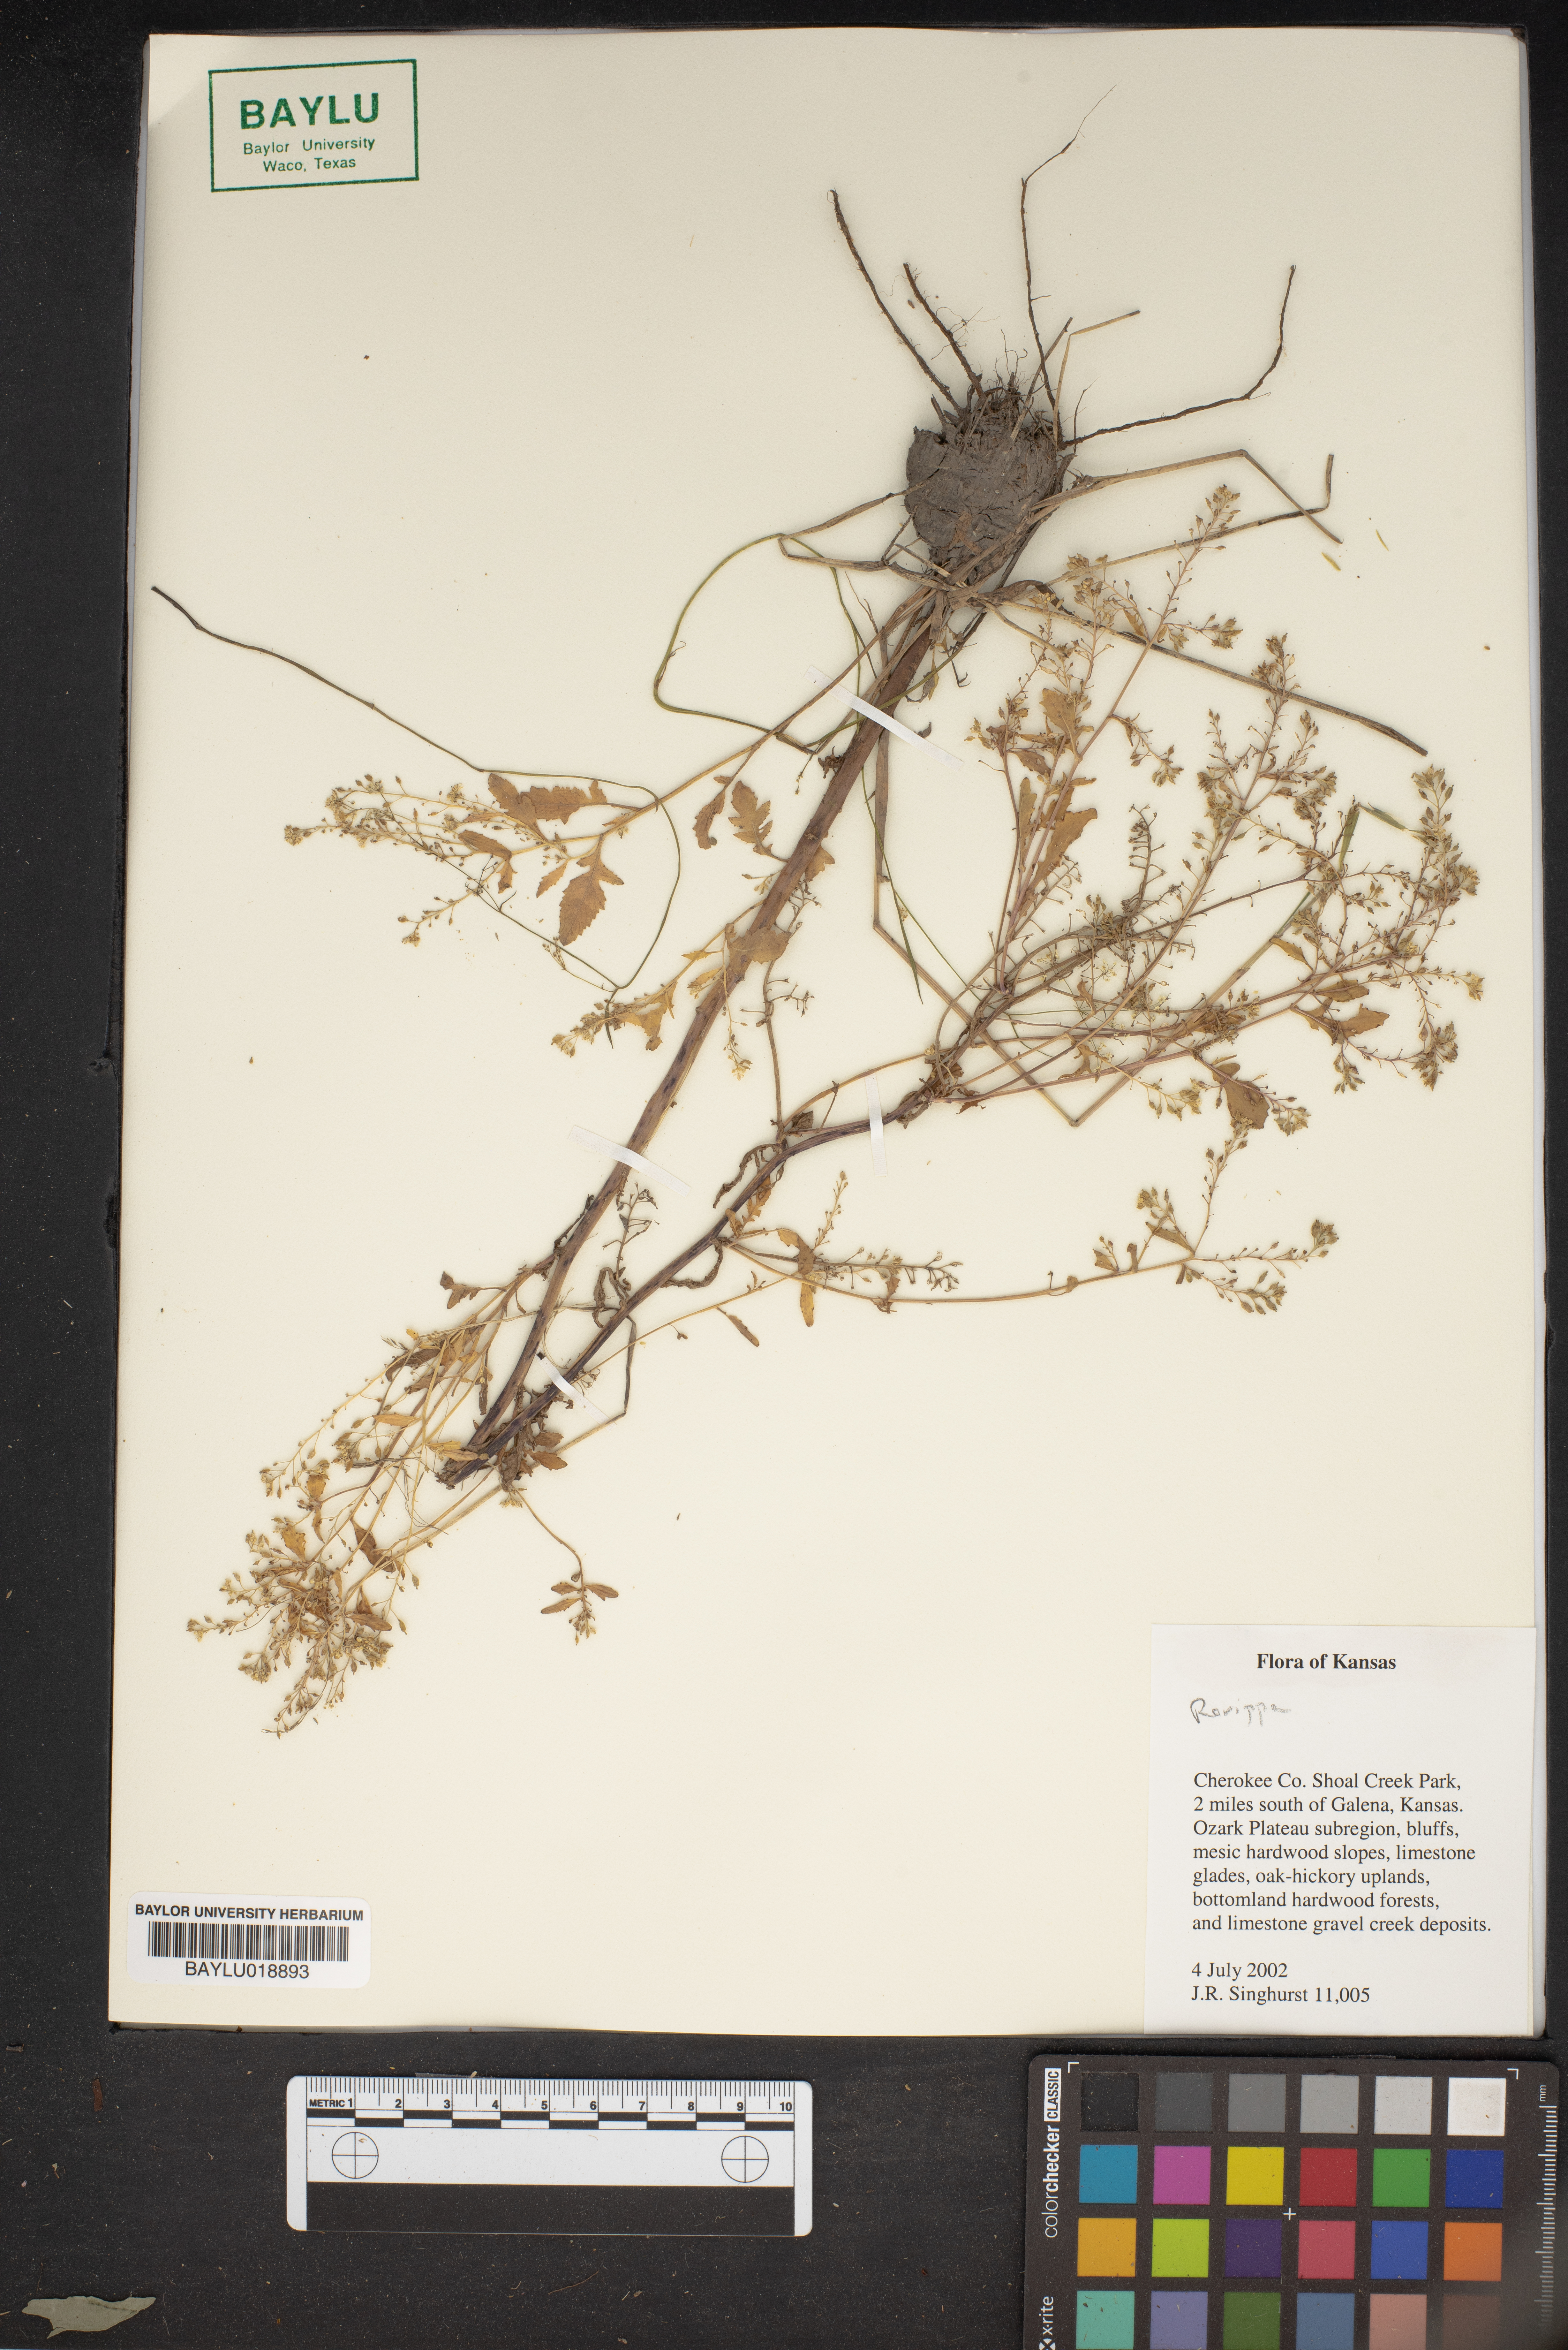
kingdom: Plantae
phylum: Tracheophyta
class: Magnoliopsida
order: Brassicales
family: Brassicaceae
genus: Rorippa
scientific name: Rorippa
